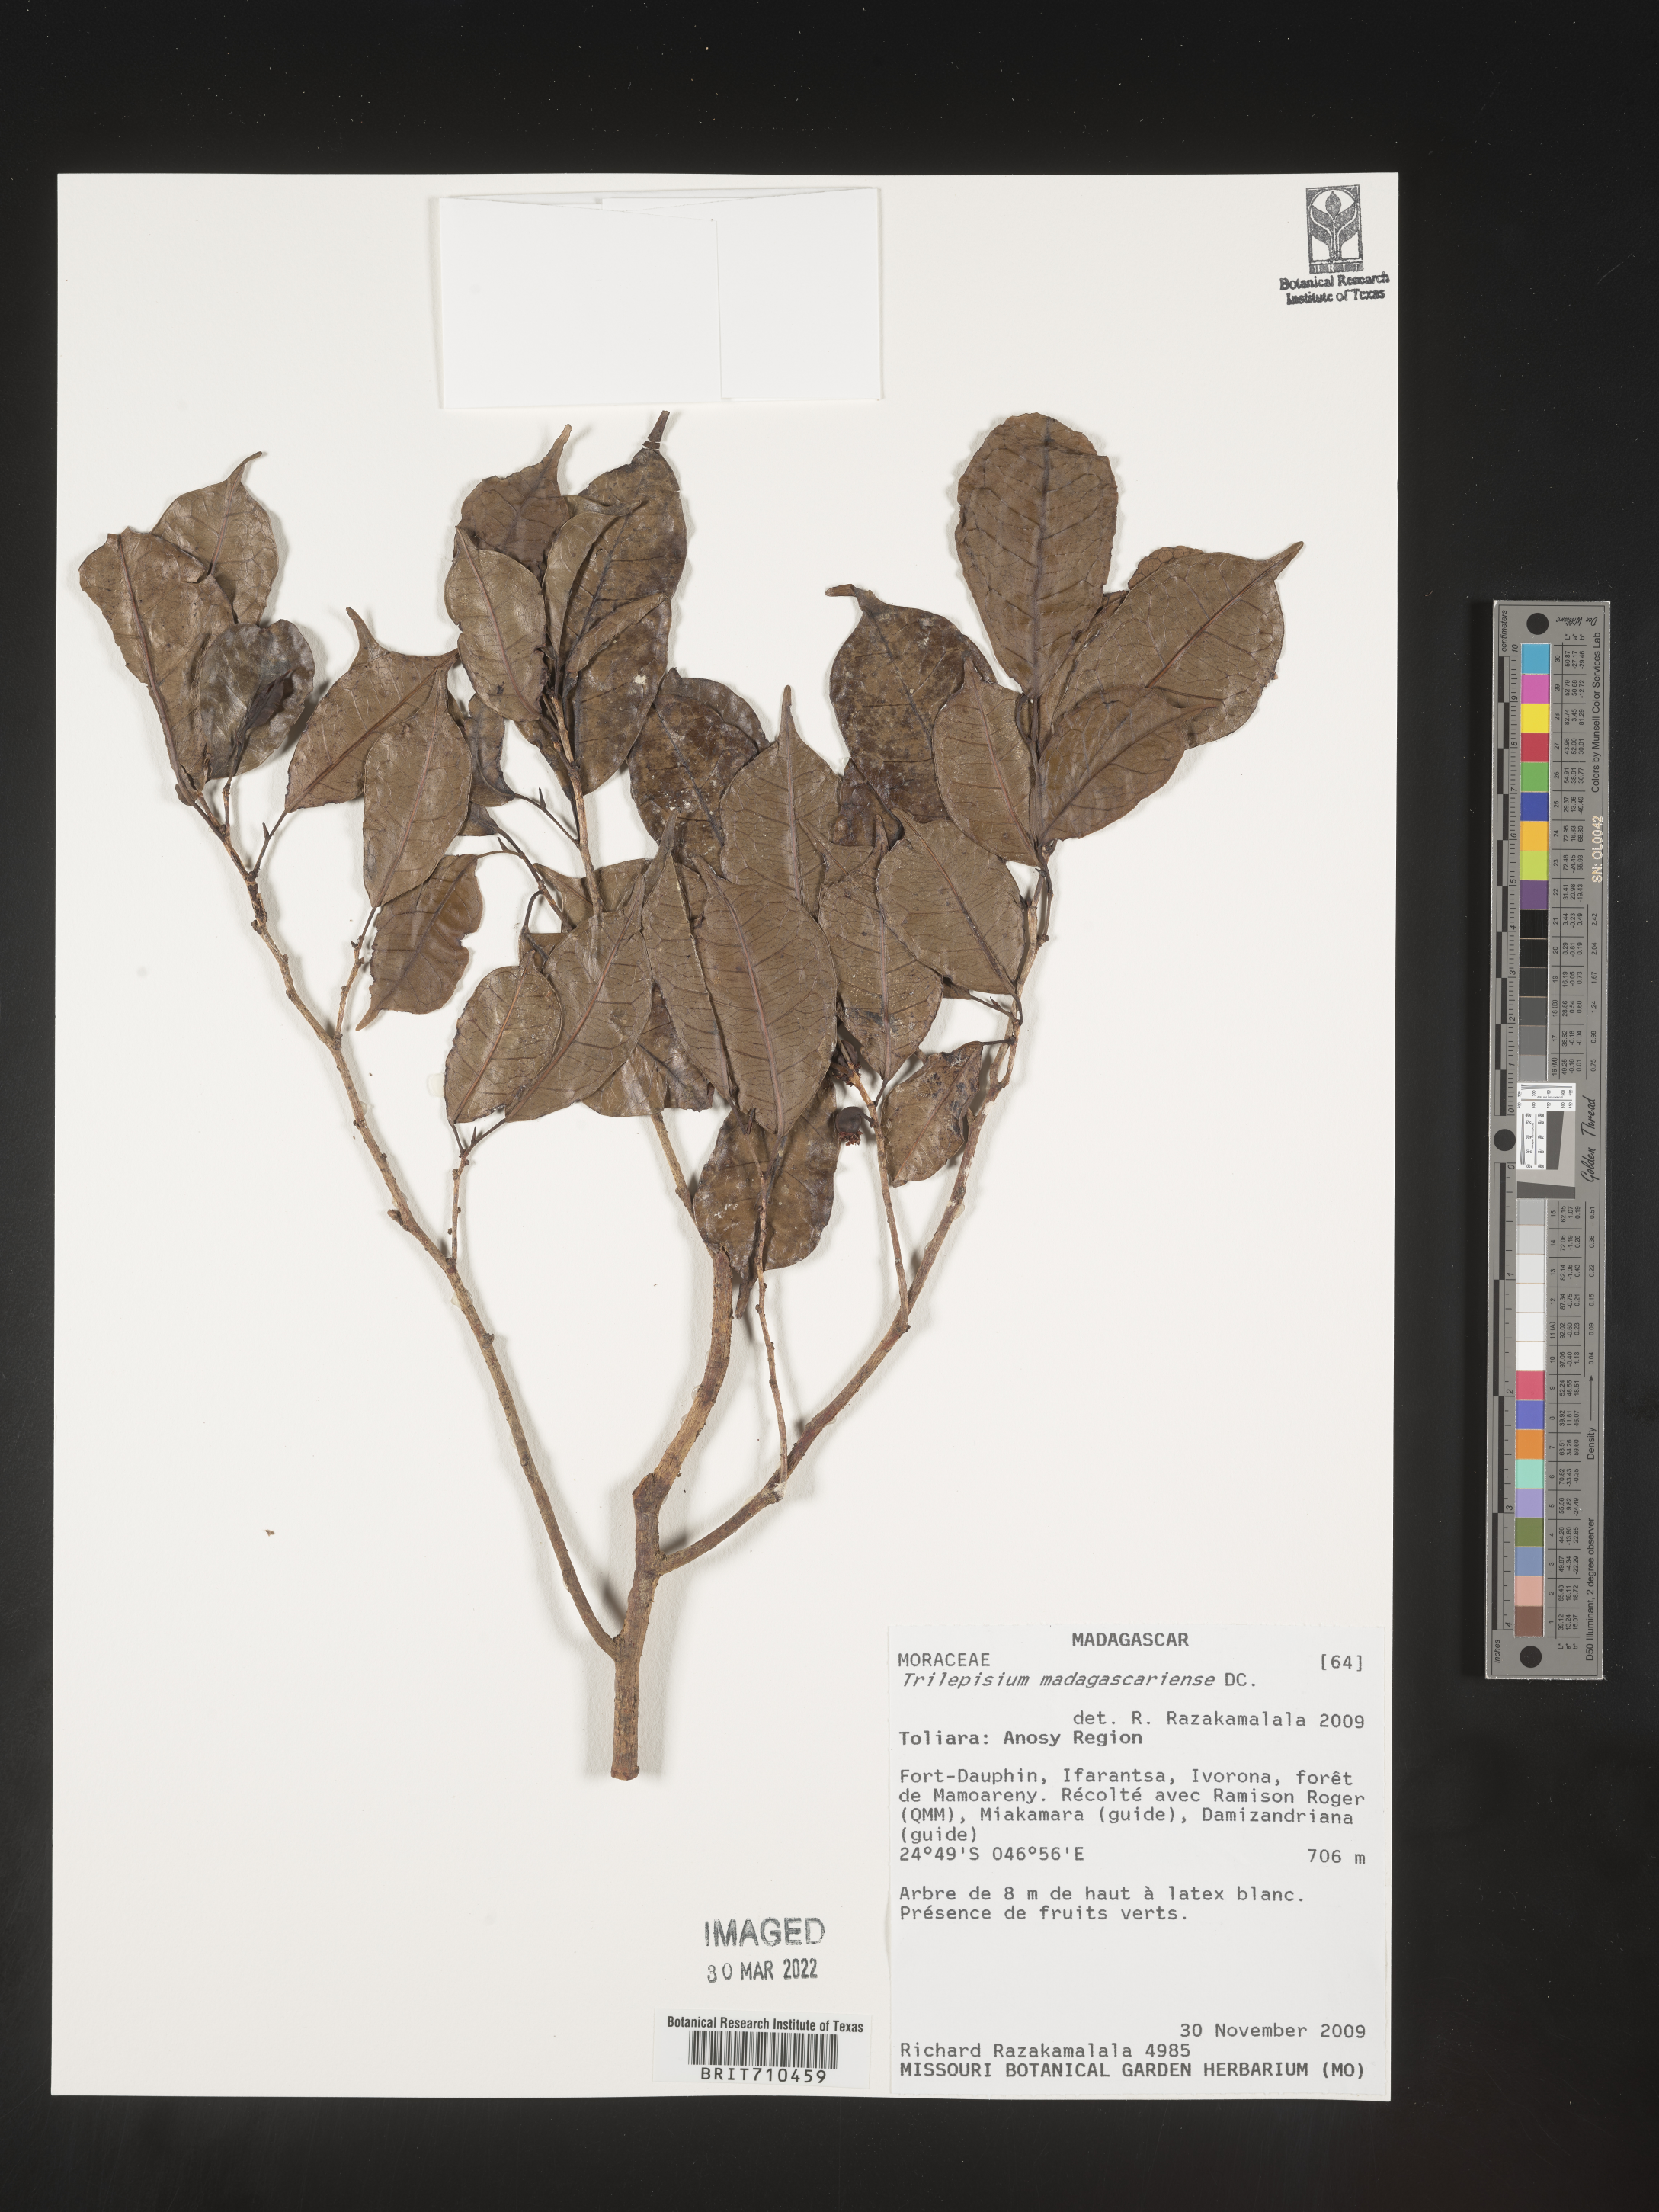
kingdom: Plantae
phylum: Tracheophyta
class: Magnoliopsida
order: Rosales
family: Moraceae
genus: Trilepisium
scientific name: Trilepisium
